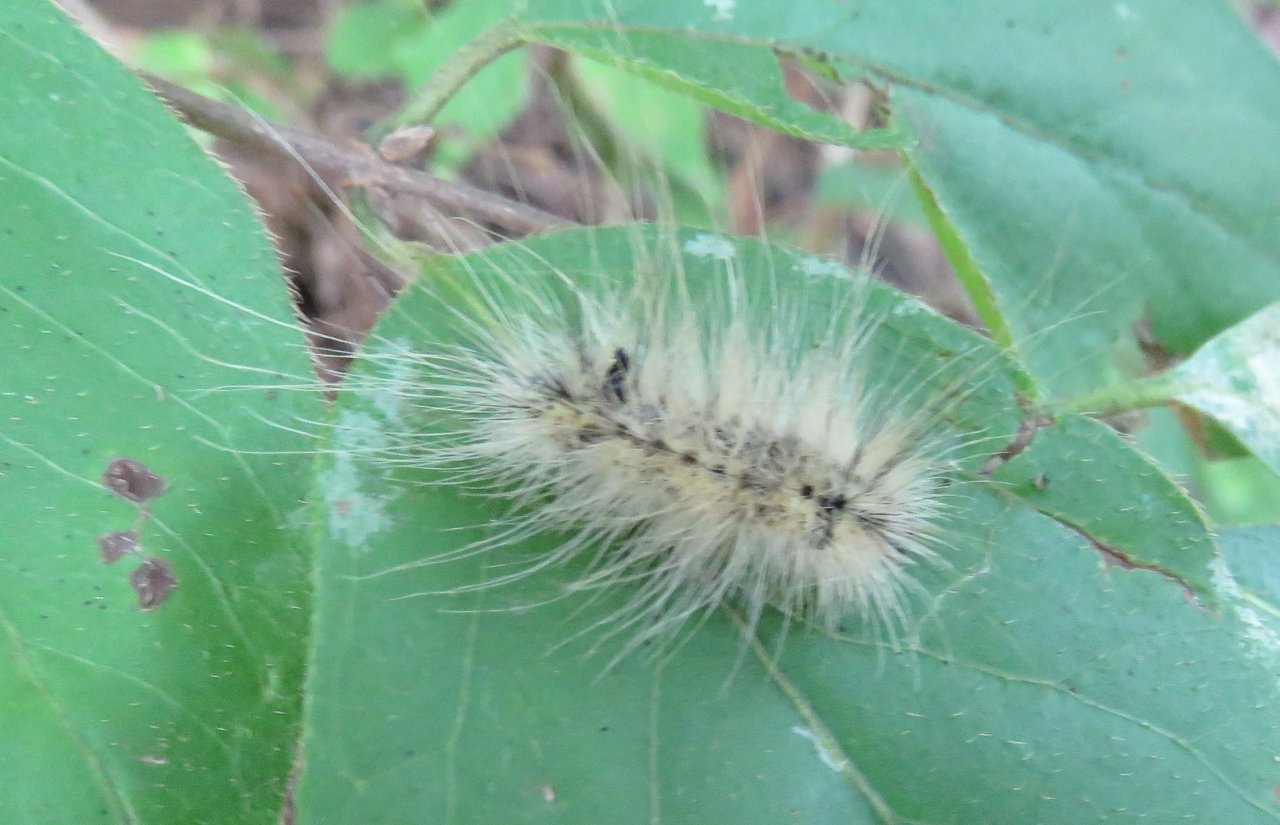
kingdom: Animalia
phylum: Arthropoda
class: Insecta
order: Lepidoptera
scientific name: Lepidoptera
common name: Butterflies
